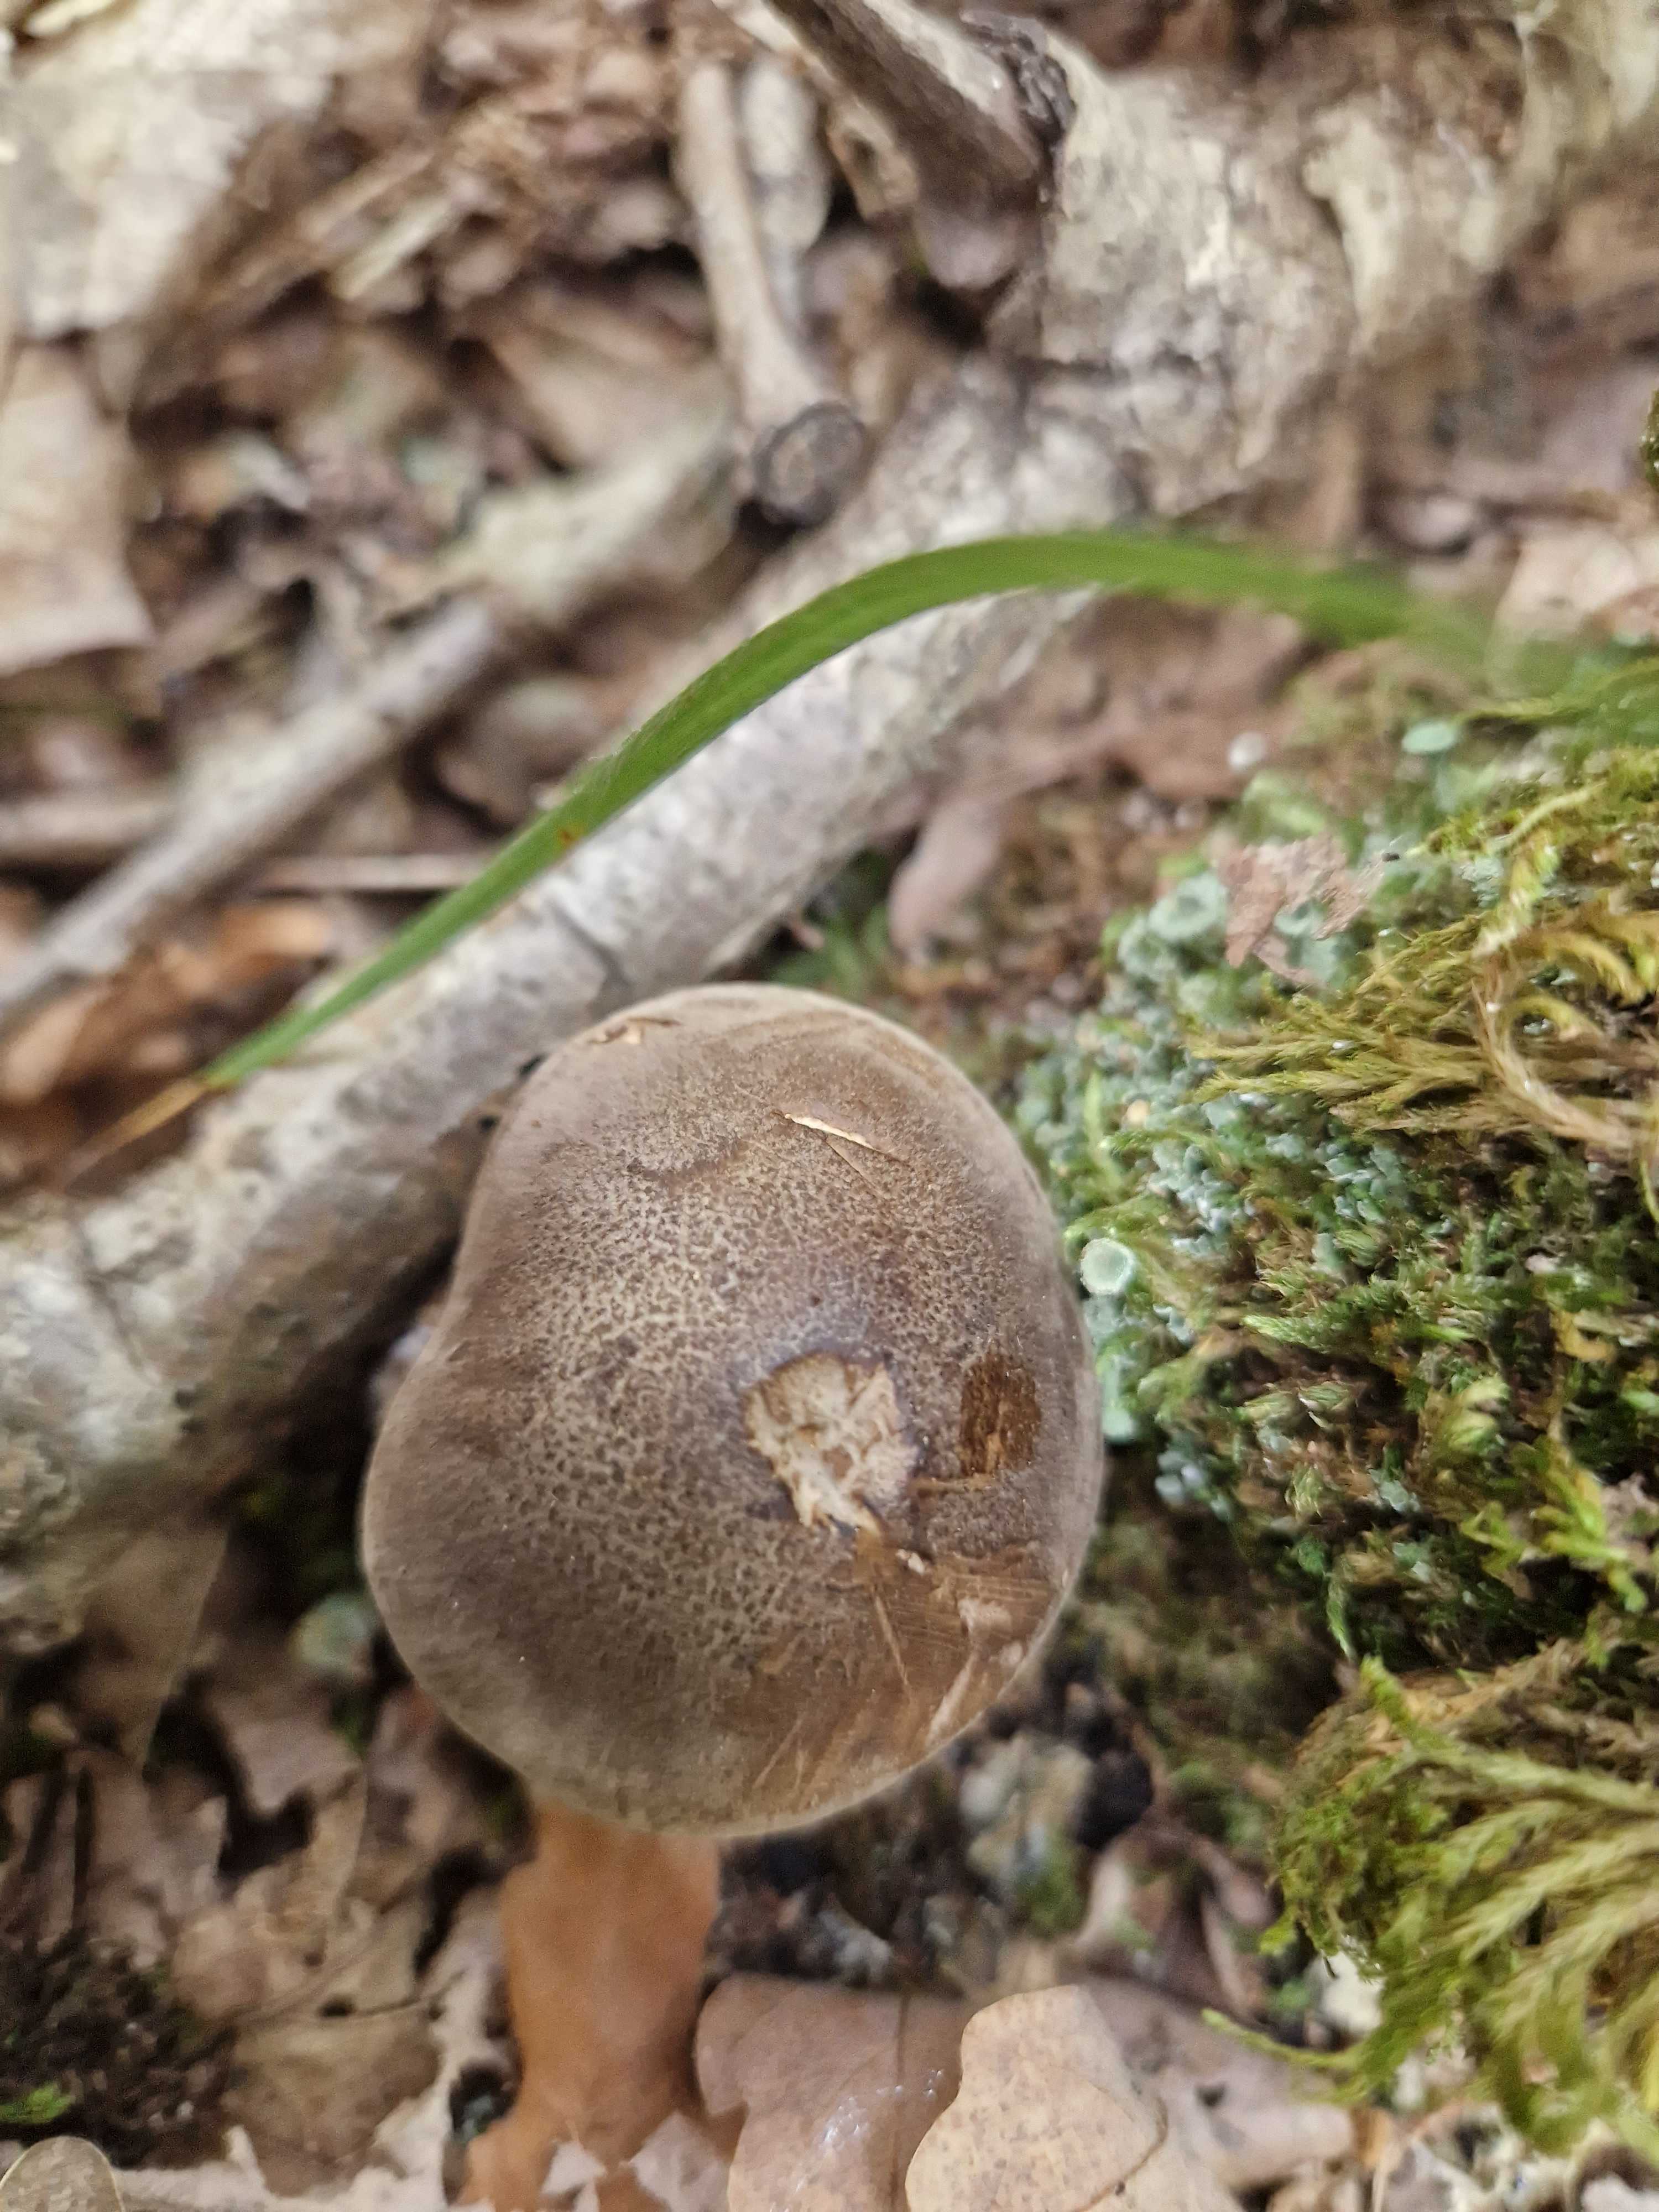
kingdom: Fungi
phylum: Basidiomycota
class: Agaricomycetes
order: Agaricales
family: Tricholomataceae
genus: Tricholoma
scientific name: Tricholoma
